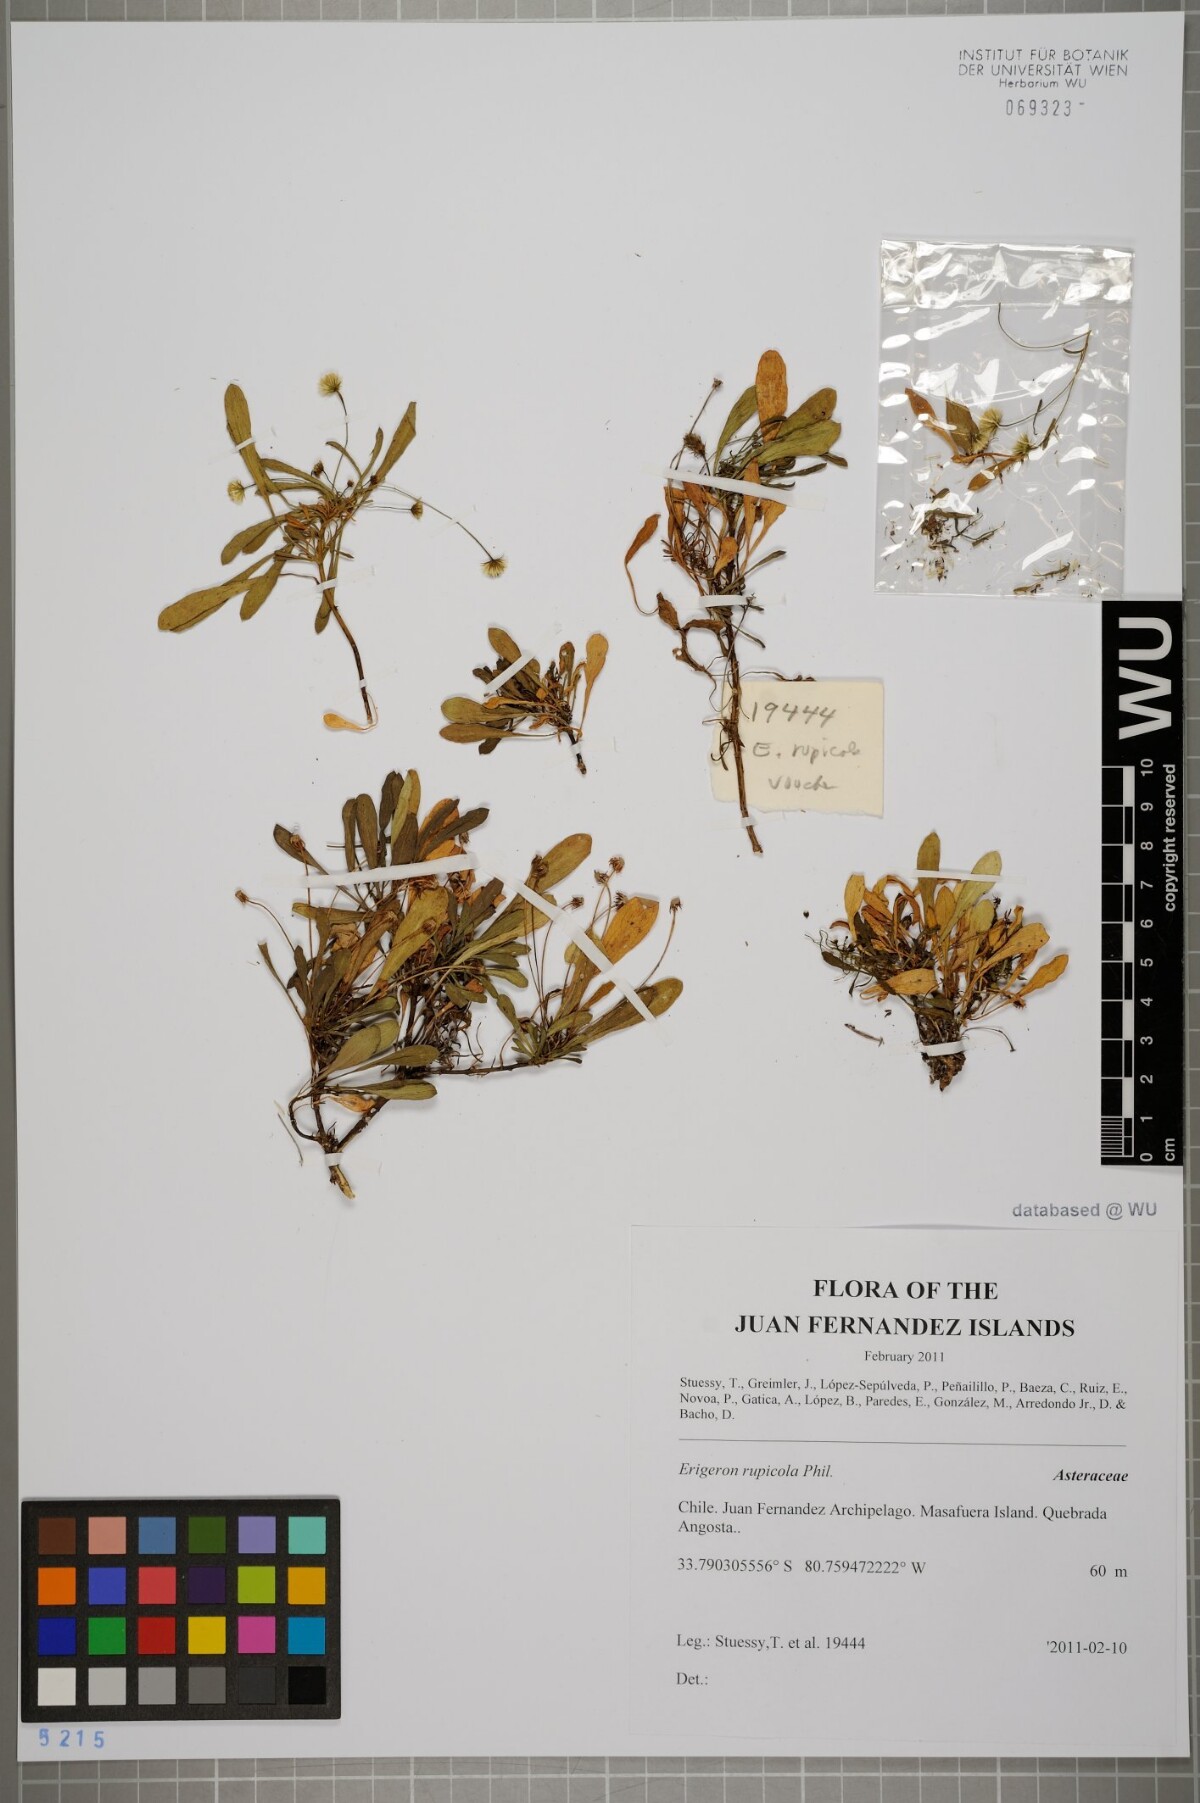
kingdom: Plantae
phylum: Tracheophyta
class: Magnoliopsida
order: Asterales
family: Asteraceae
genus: Erigeron
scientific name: Erigeron rupicola
